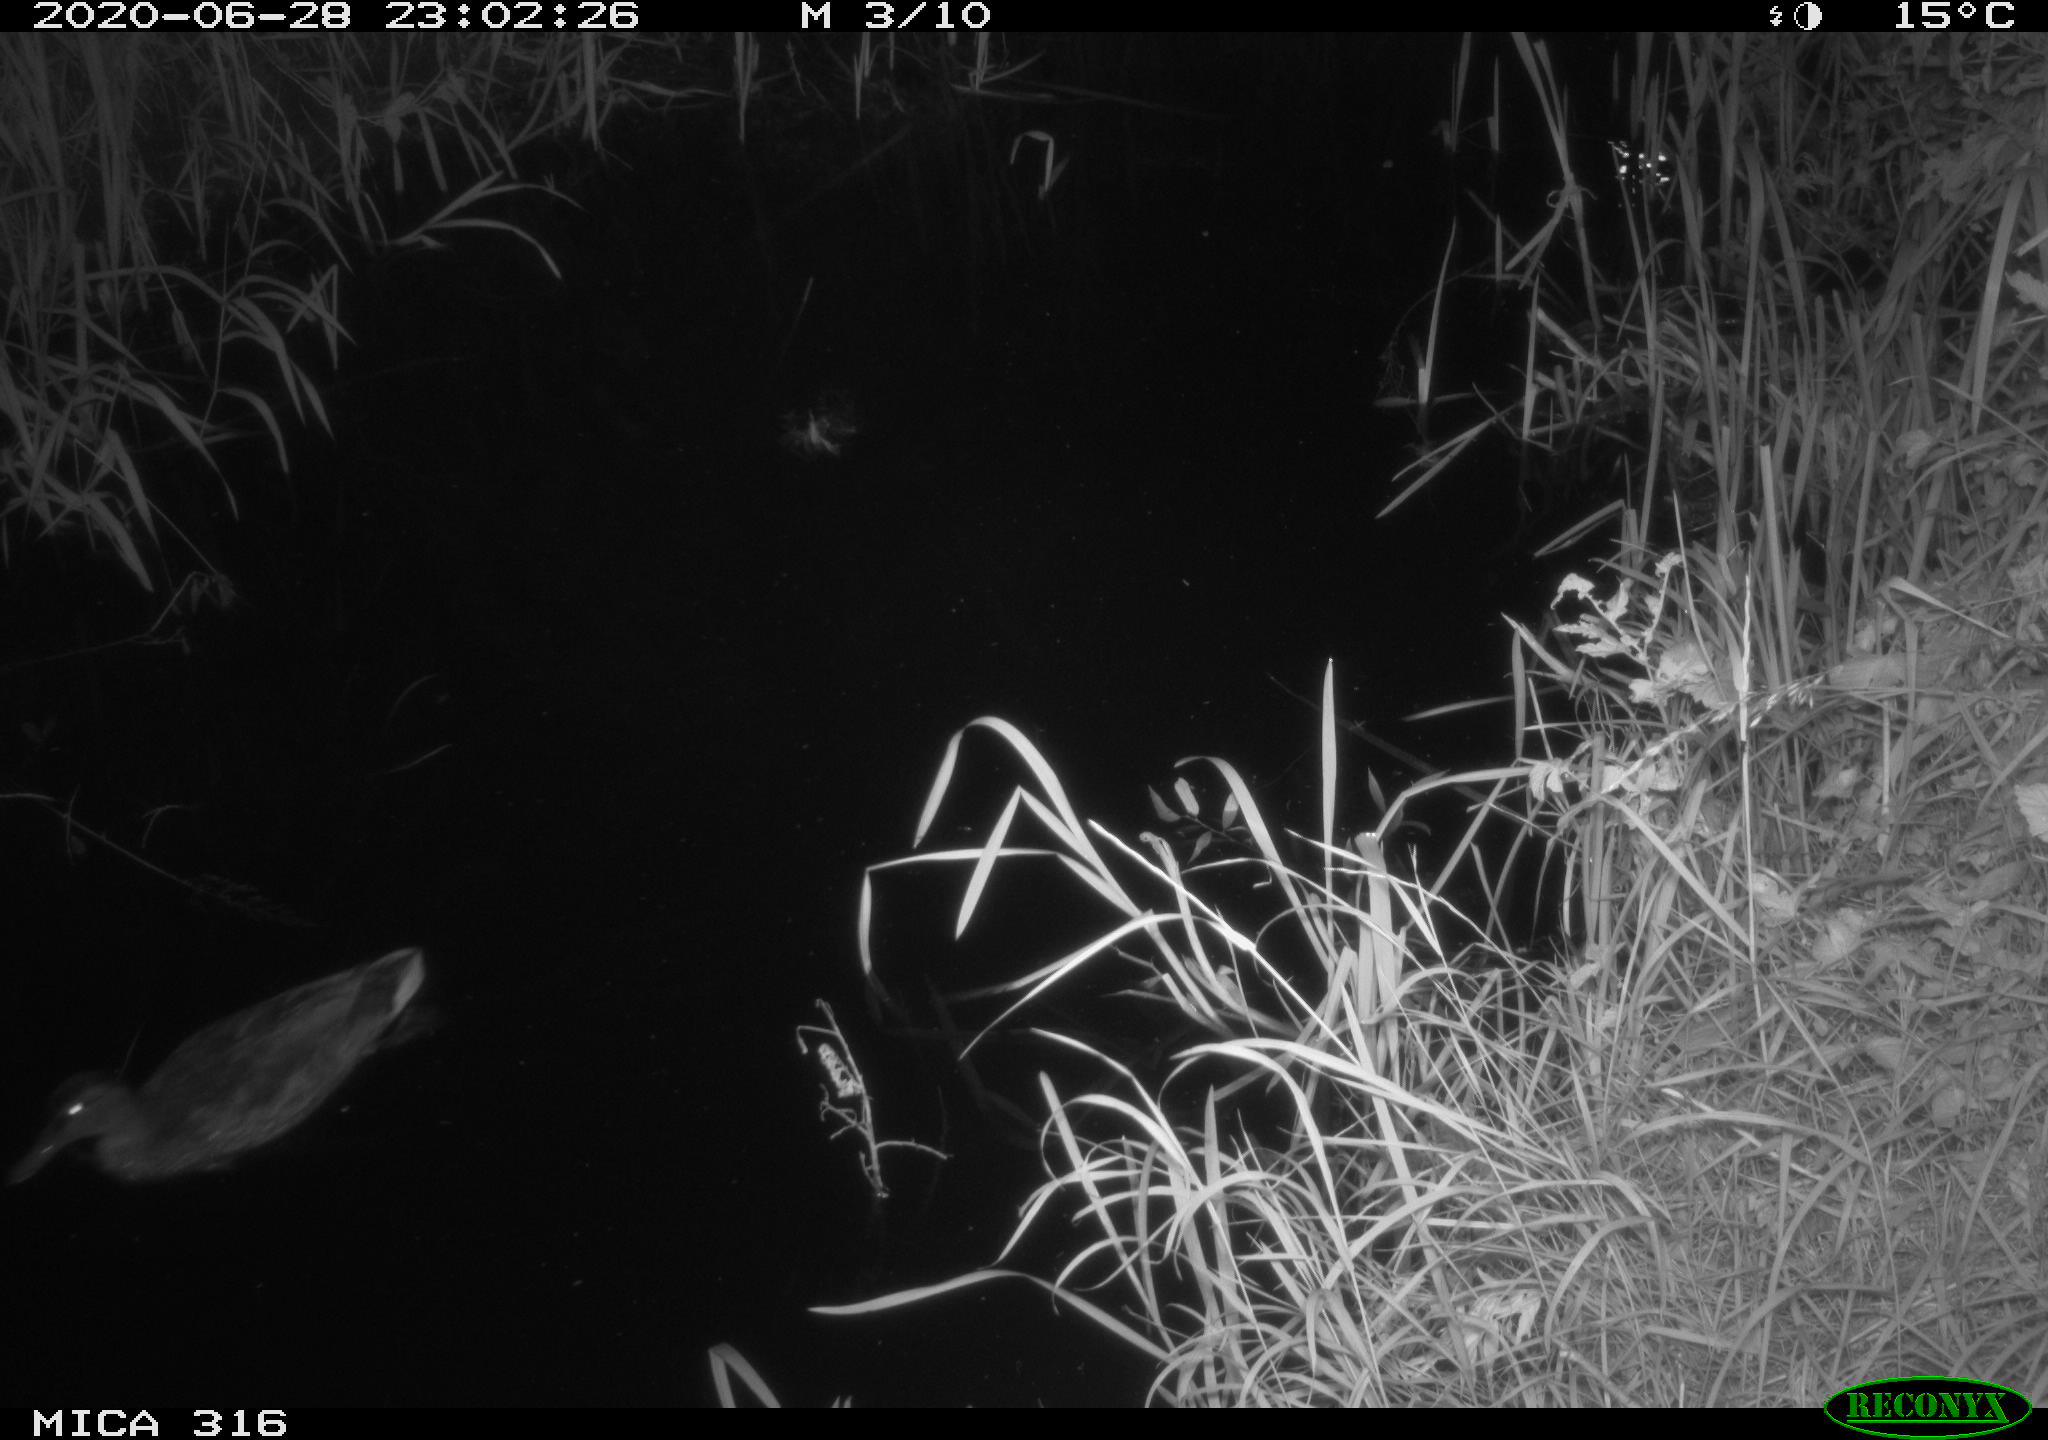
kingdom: Animalia
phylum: Chordata
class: Aves
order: Anseriformes
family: Anatidae
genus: Anas
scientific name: Anas platyrhynchos
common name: Mallard
